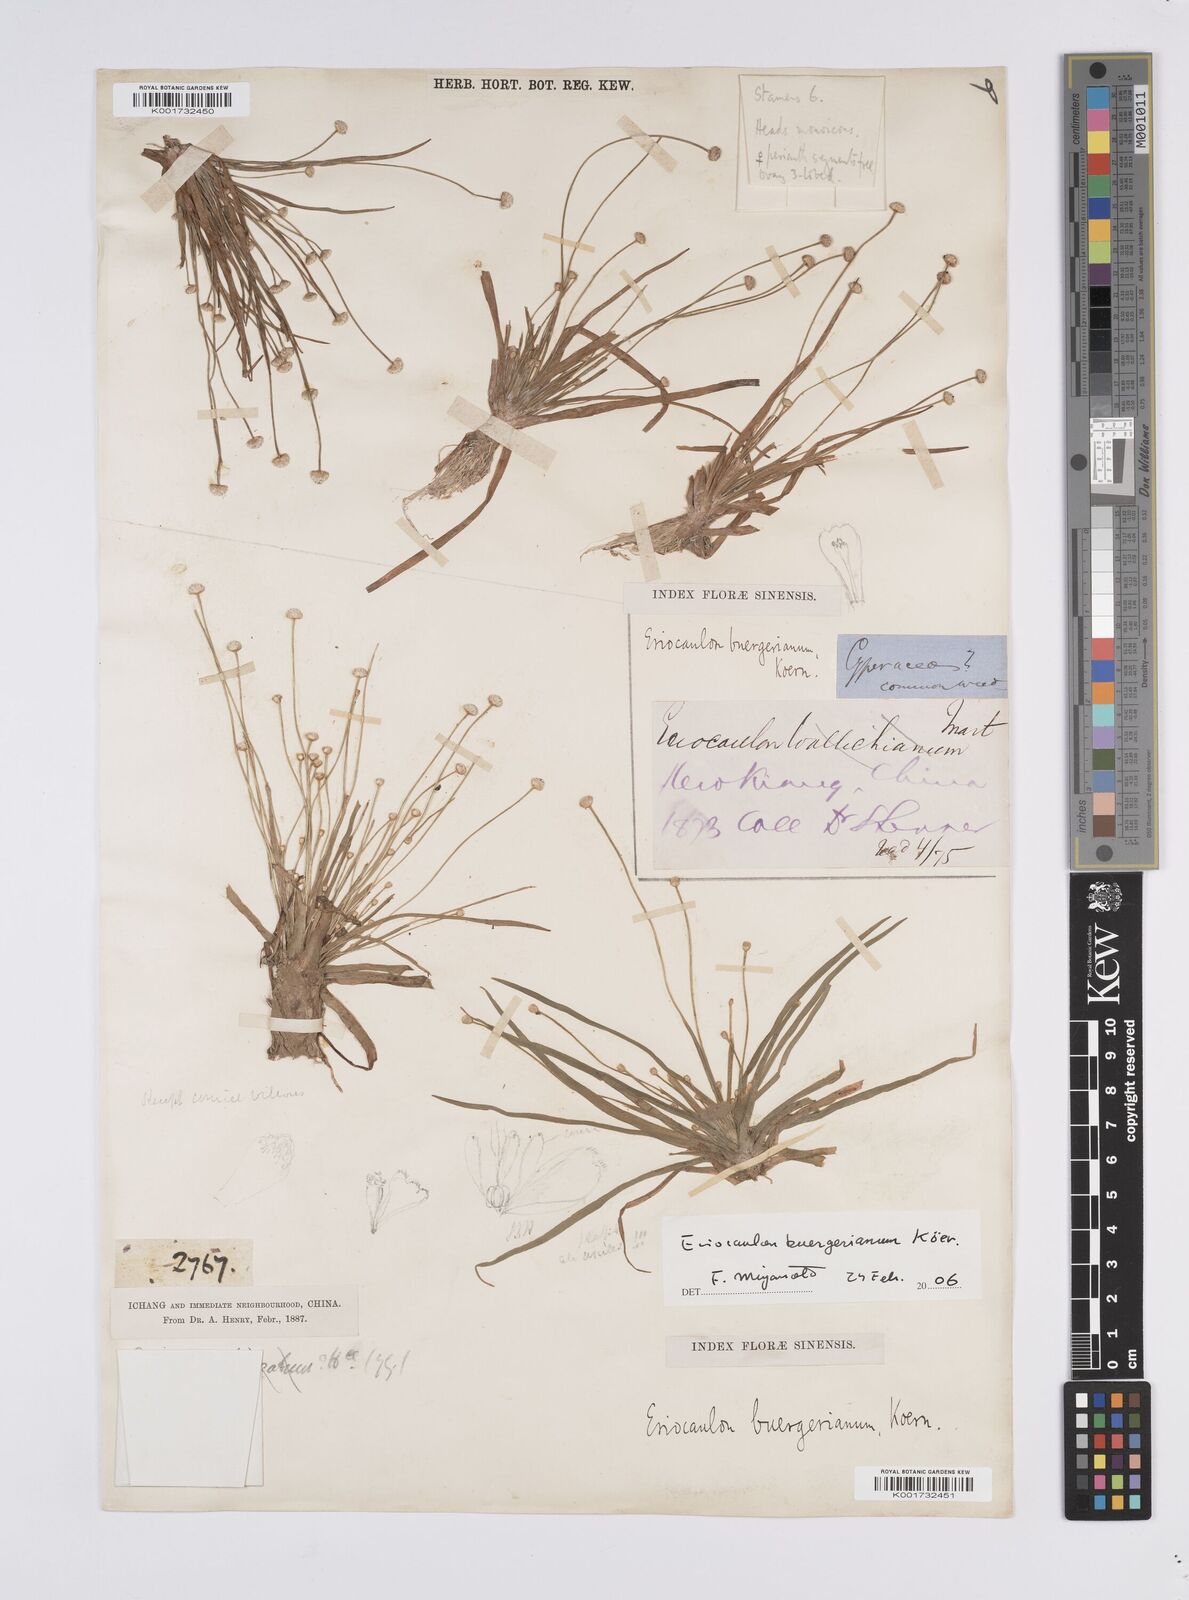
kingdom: Plantae
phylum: Tracheophyta
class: Liliopsida
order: Poales
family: Eriocaulaceae
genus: Eriocaulon
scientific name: Eriocaulon buergerianum
